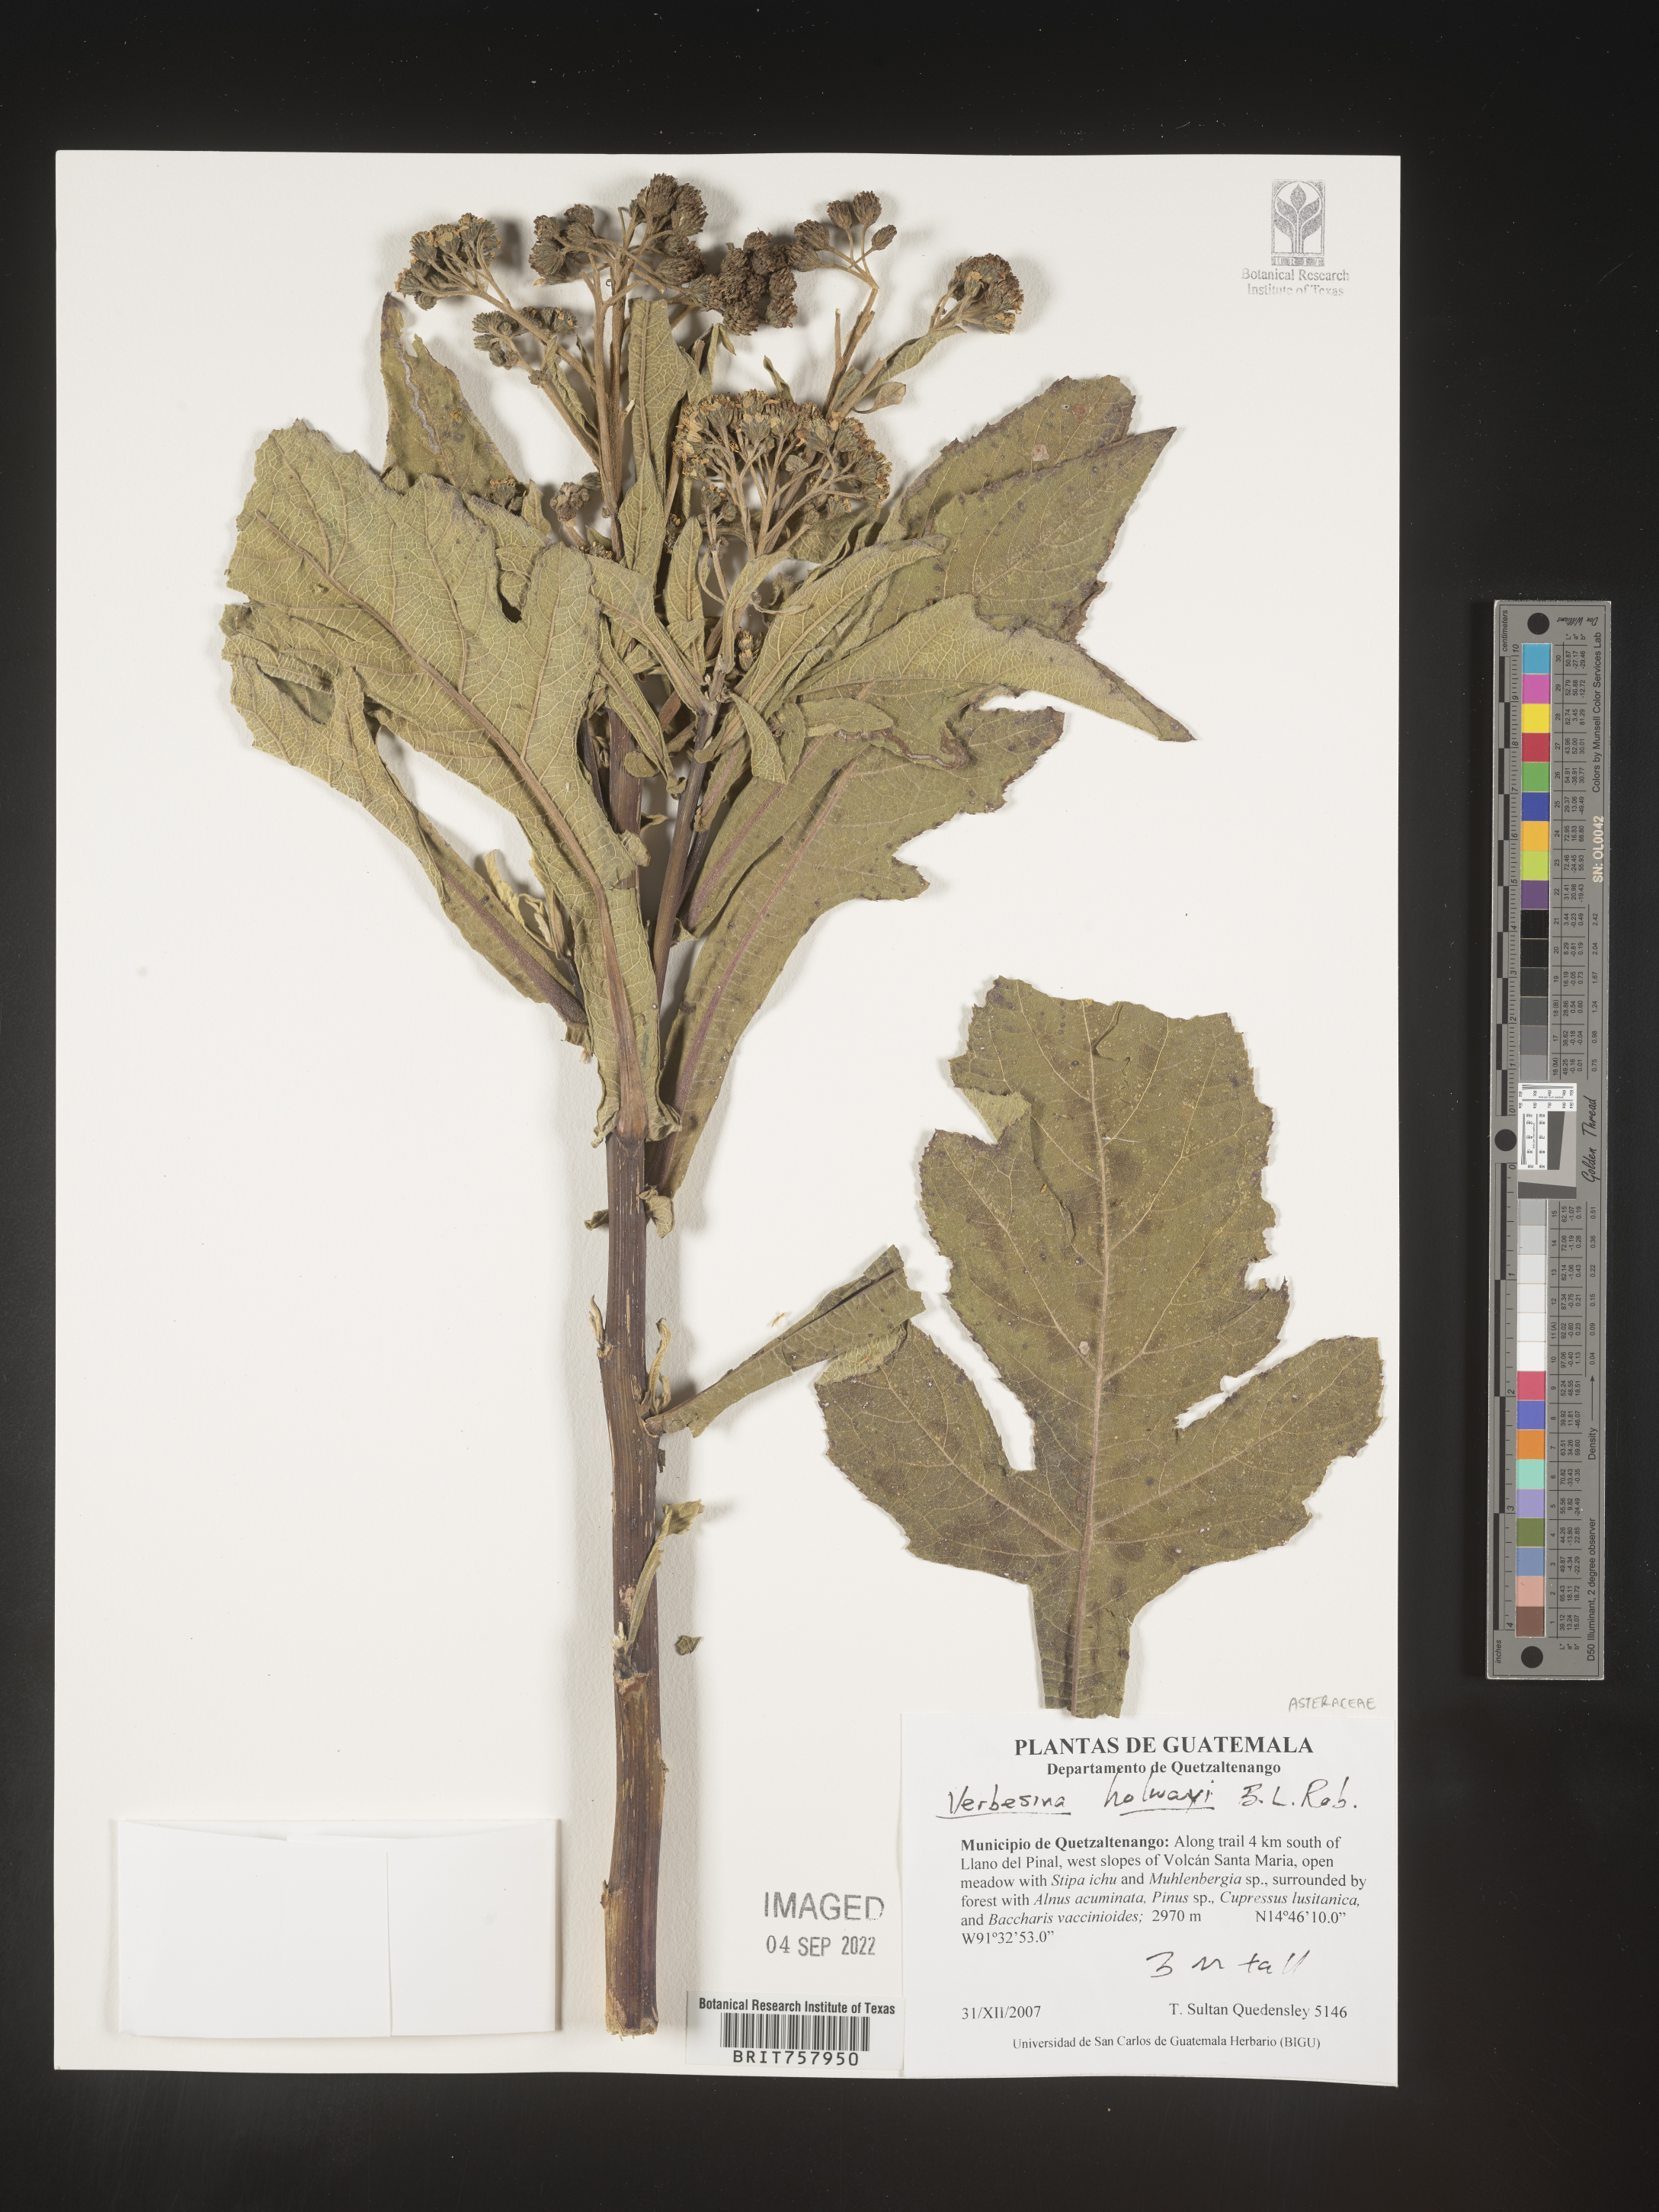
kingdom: Plantae
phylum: Tracheophyta
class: Magnoliopsida
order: Asterales
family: Asteraceae
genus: Verbesina
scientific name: Verbesina
